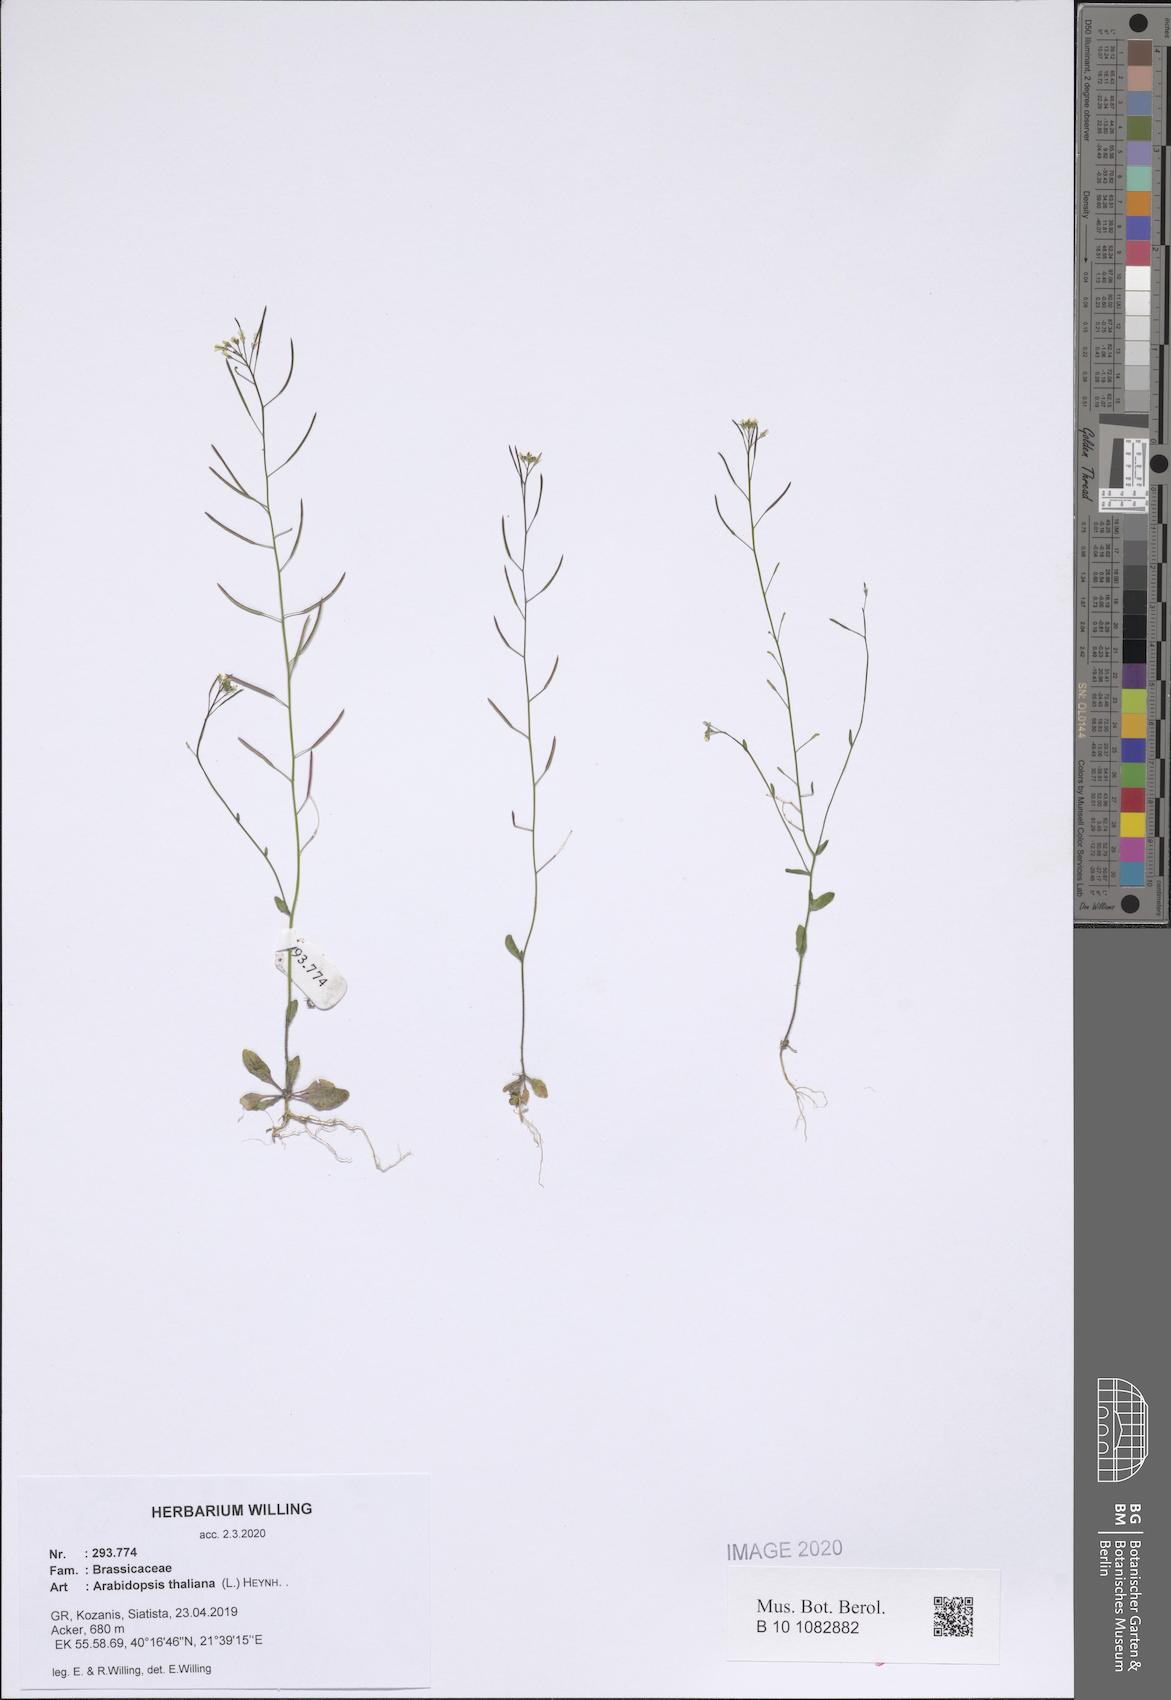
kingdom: Plantae
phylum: Tracheophyta
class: Magnoliopsida
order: Brassicales
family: Brassicaceae
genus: Arabidopsis
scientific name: Arabidopsis thaliana
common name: Thale cress
